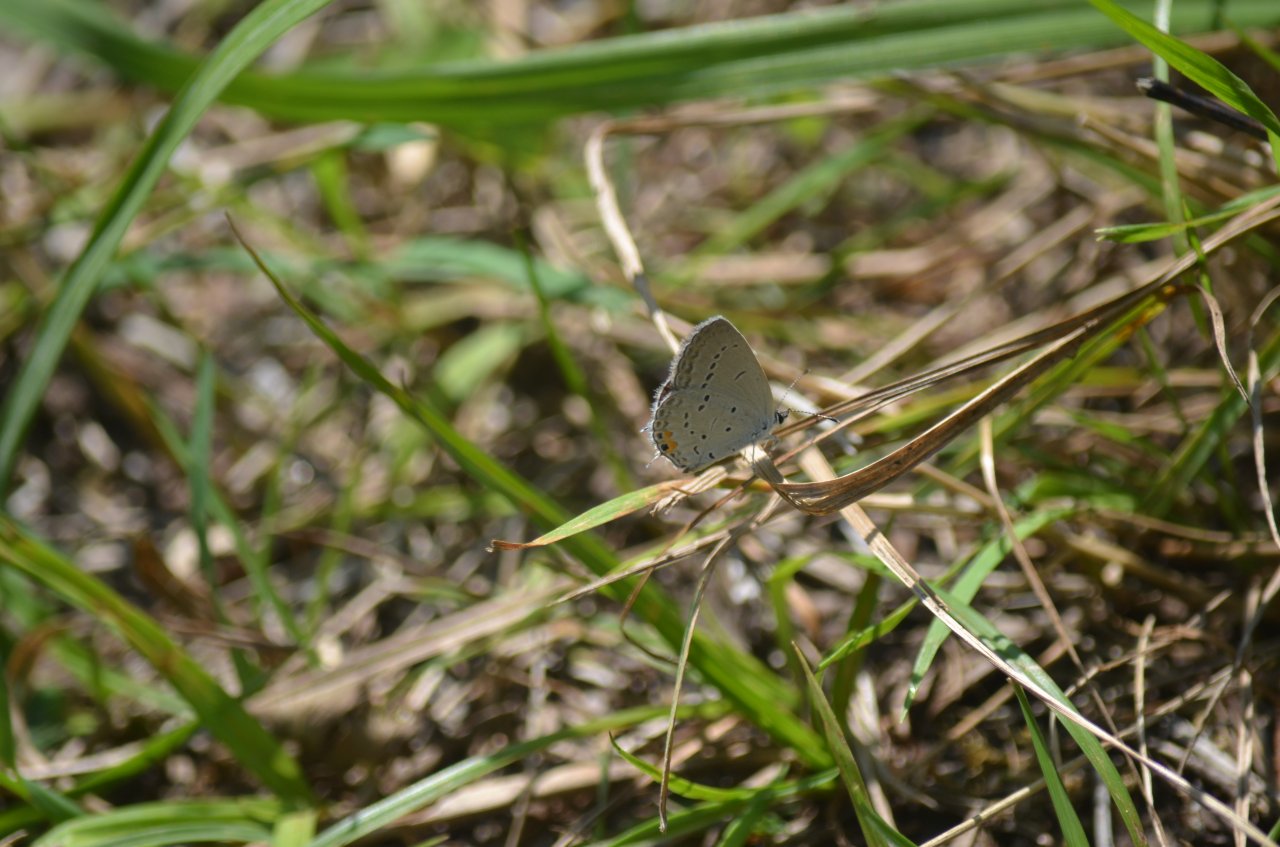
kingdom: Animalia
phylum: Arthropoda
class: Insecta
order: Lepidoptera
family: Lycaenidae
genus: Elkalyce
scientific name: Elkalyce comyntas
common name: Eastern Tailed-Blue
